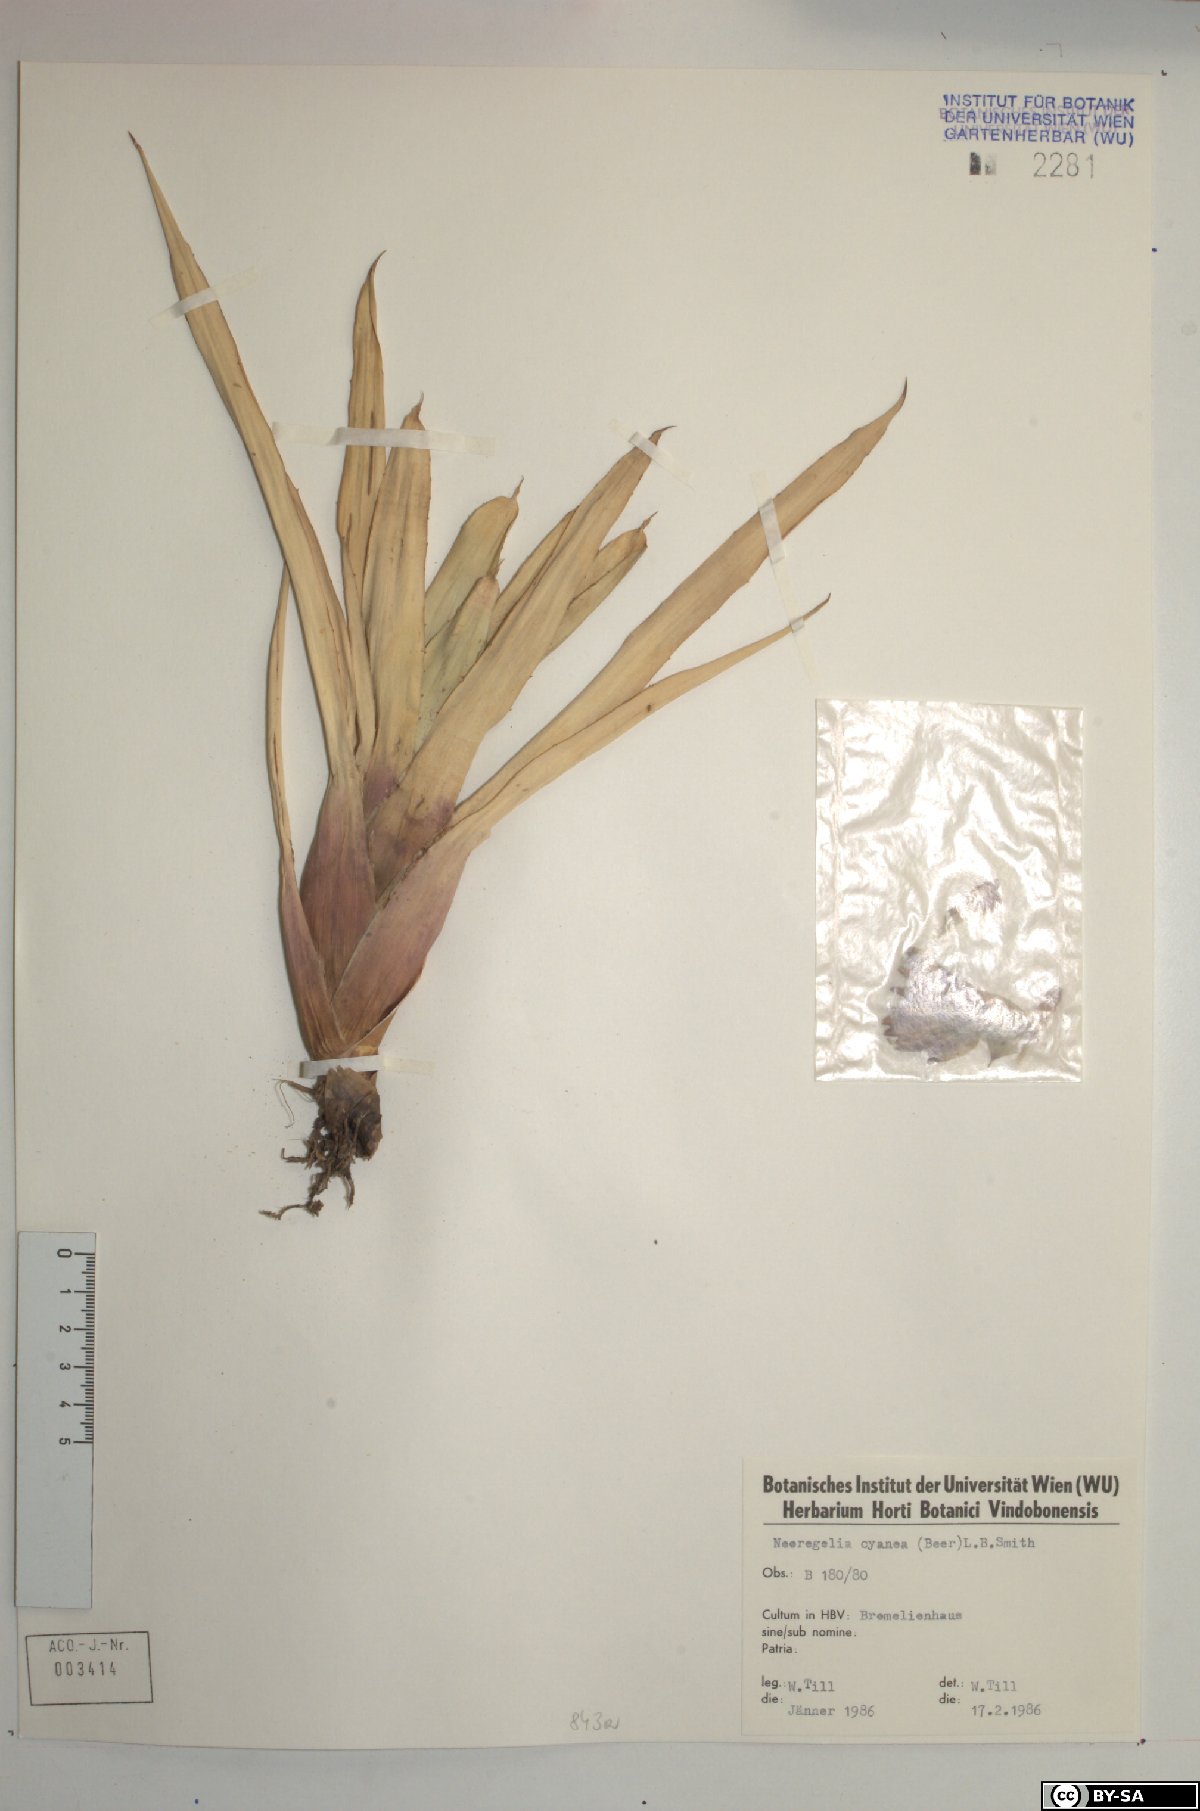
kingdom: Plantae
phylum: Tracheophyta
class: Liliopsida
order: Poales
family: Bromeliaceae
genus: Neoregelia
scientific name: Neoregelia cyanea
